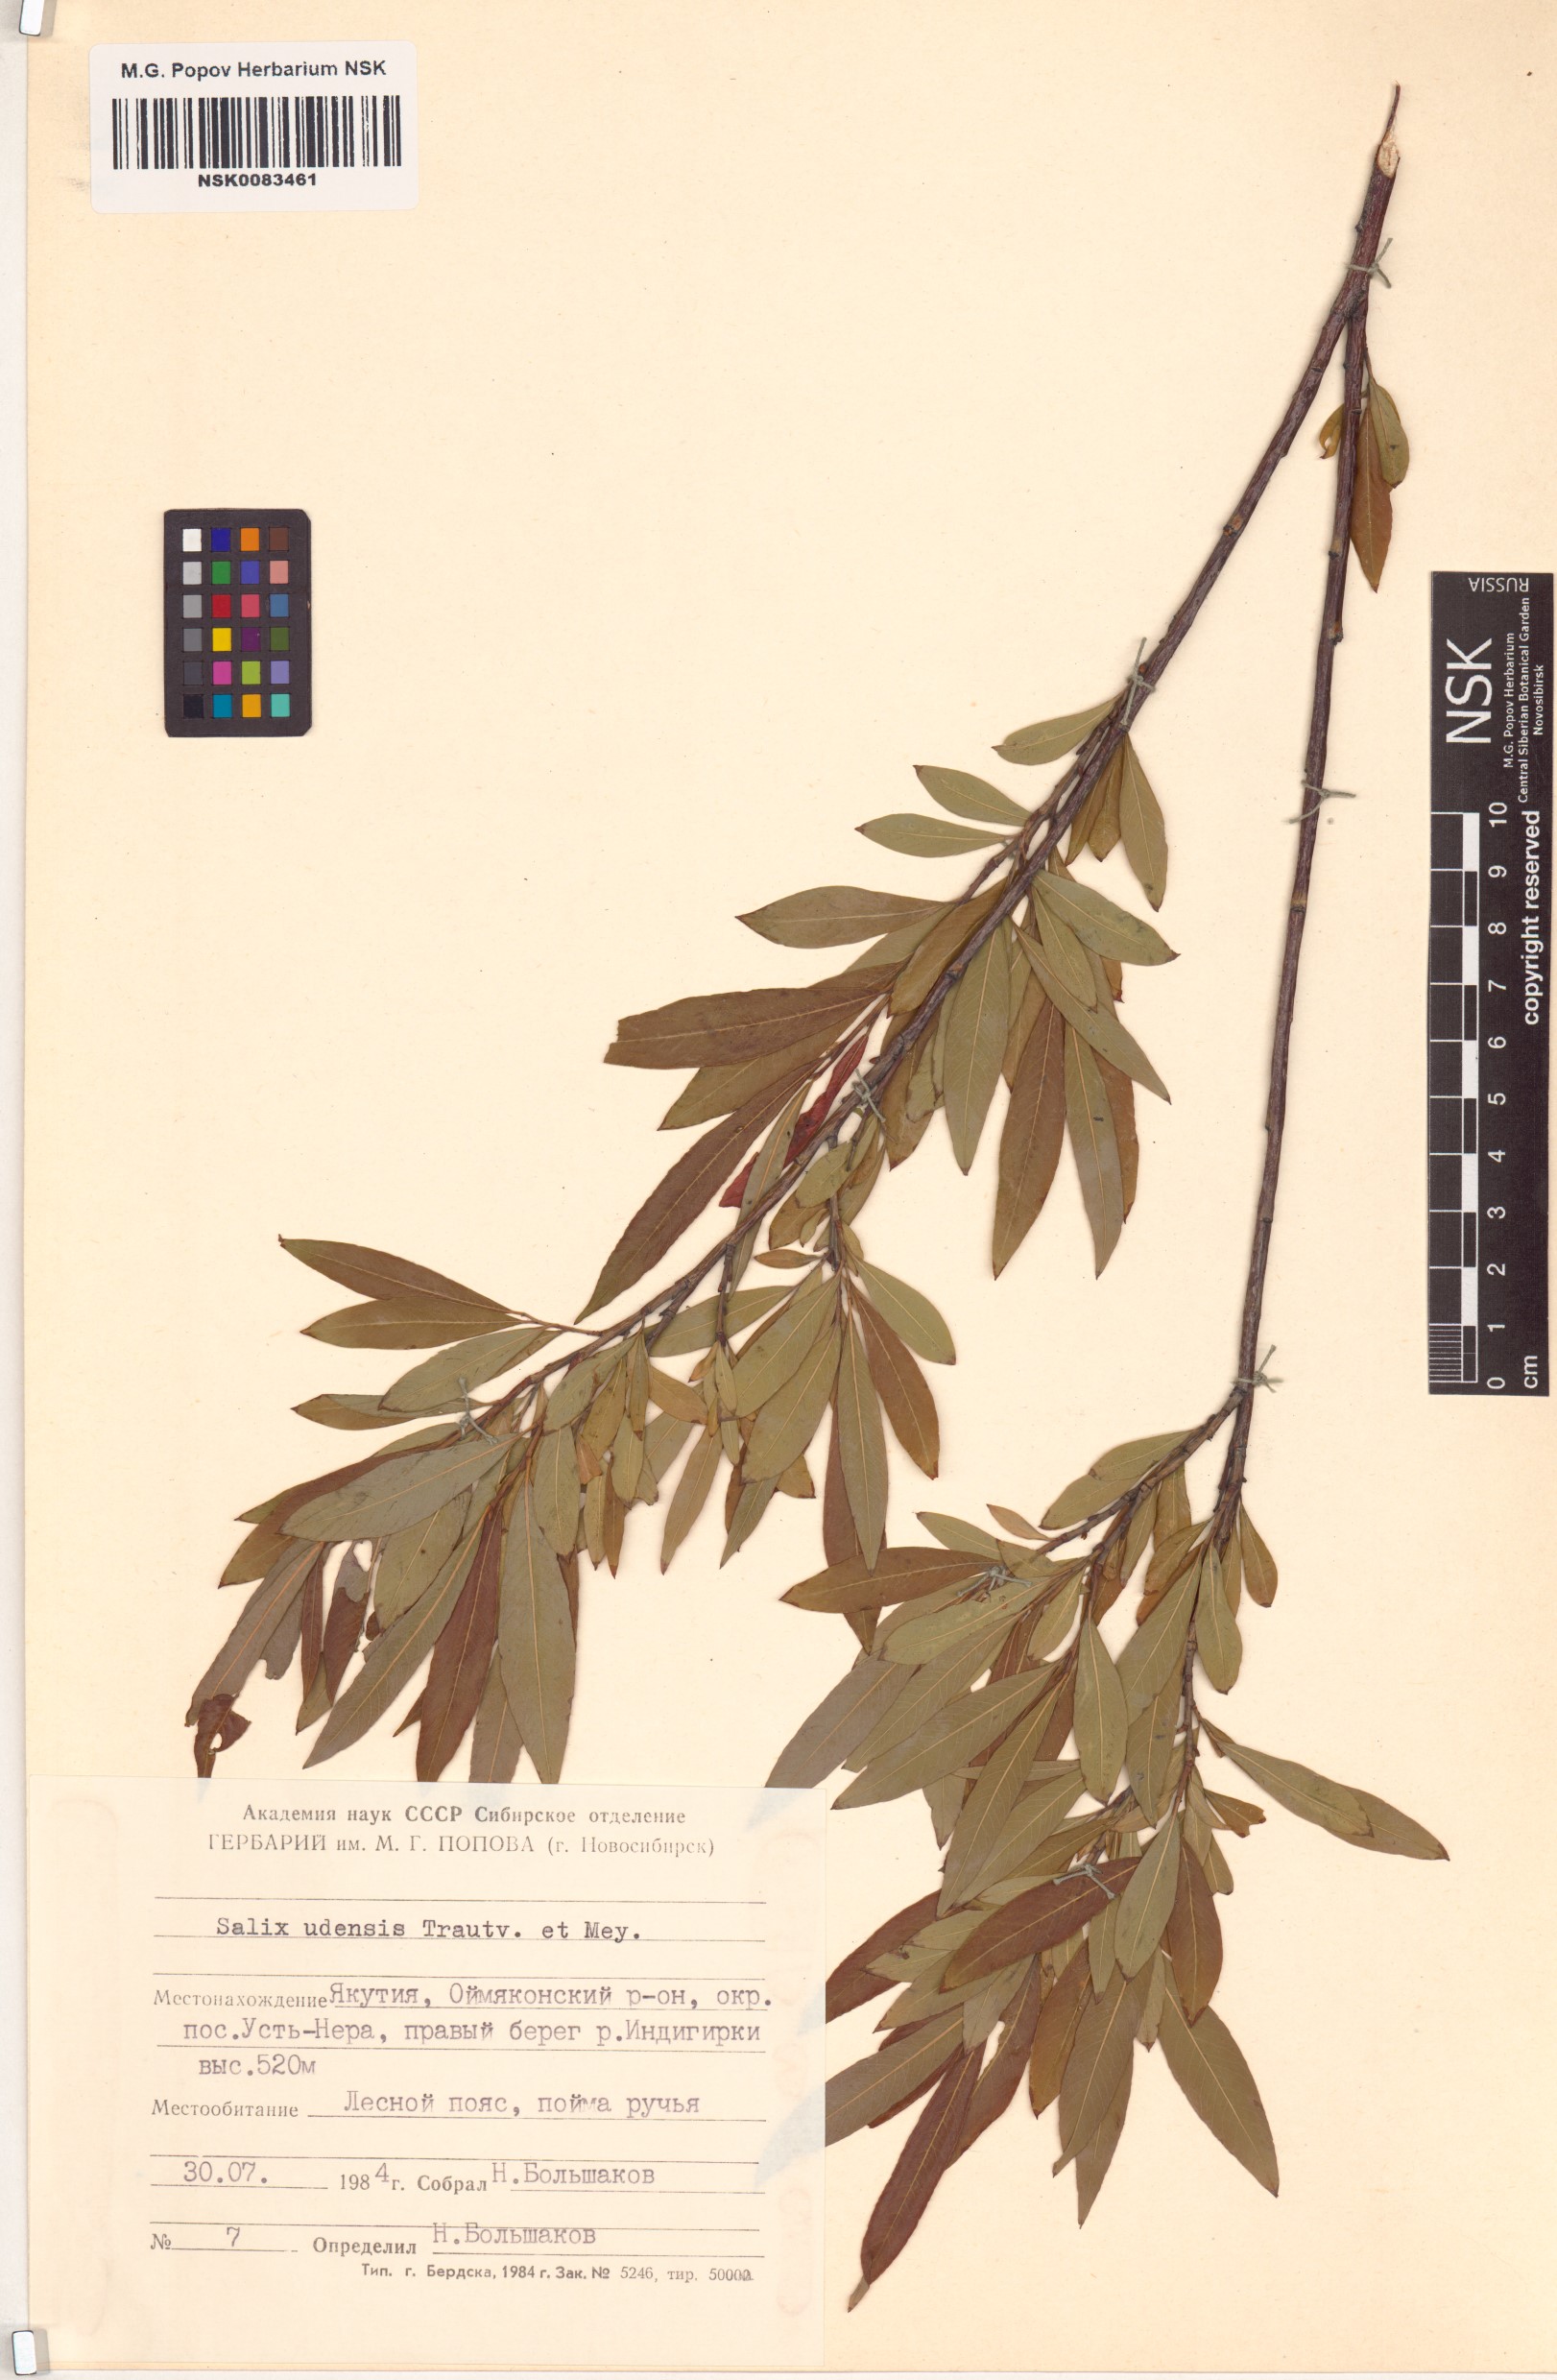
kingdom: Plantae
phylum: Tracheophyta
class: Magnoliopsida
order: Malpighiales
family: Salicaceae
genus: Salix
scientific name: Salix udensis
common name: Sachalin willow
